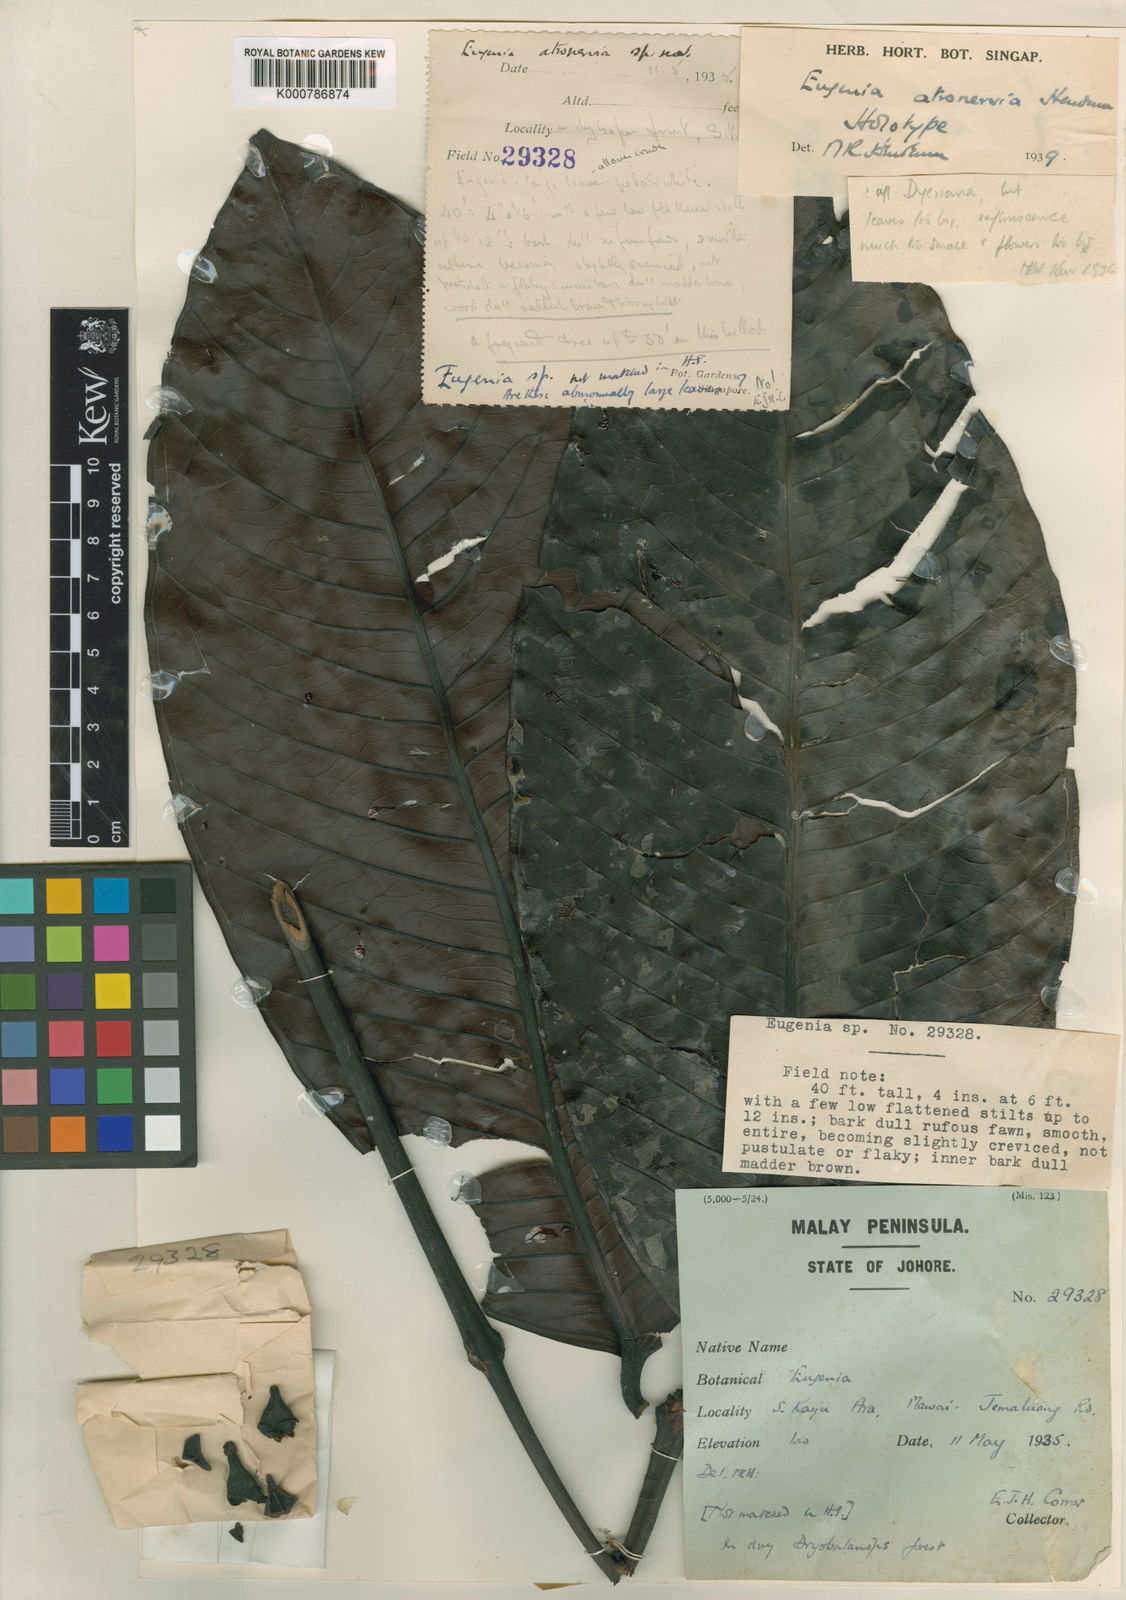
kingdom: Plantae
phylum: Tracheophyta
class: Magnoliopsida
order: Myrtales
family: Myrtaceae
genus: Syzygium
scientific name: Syzygium
